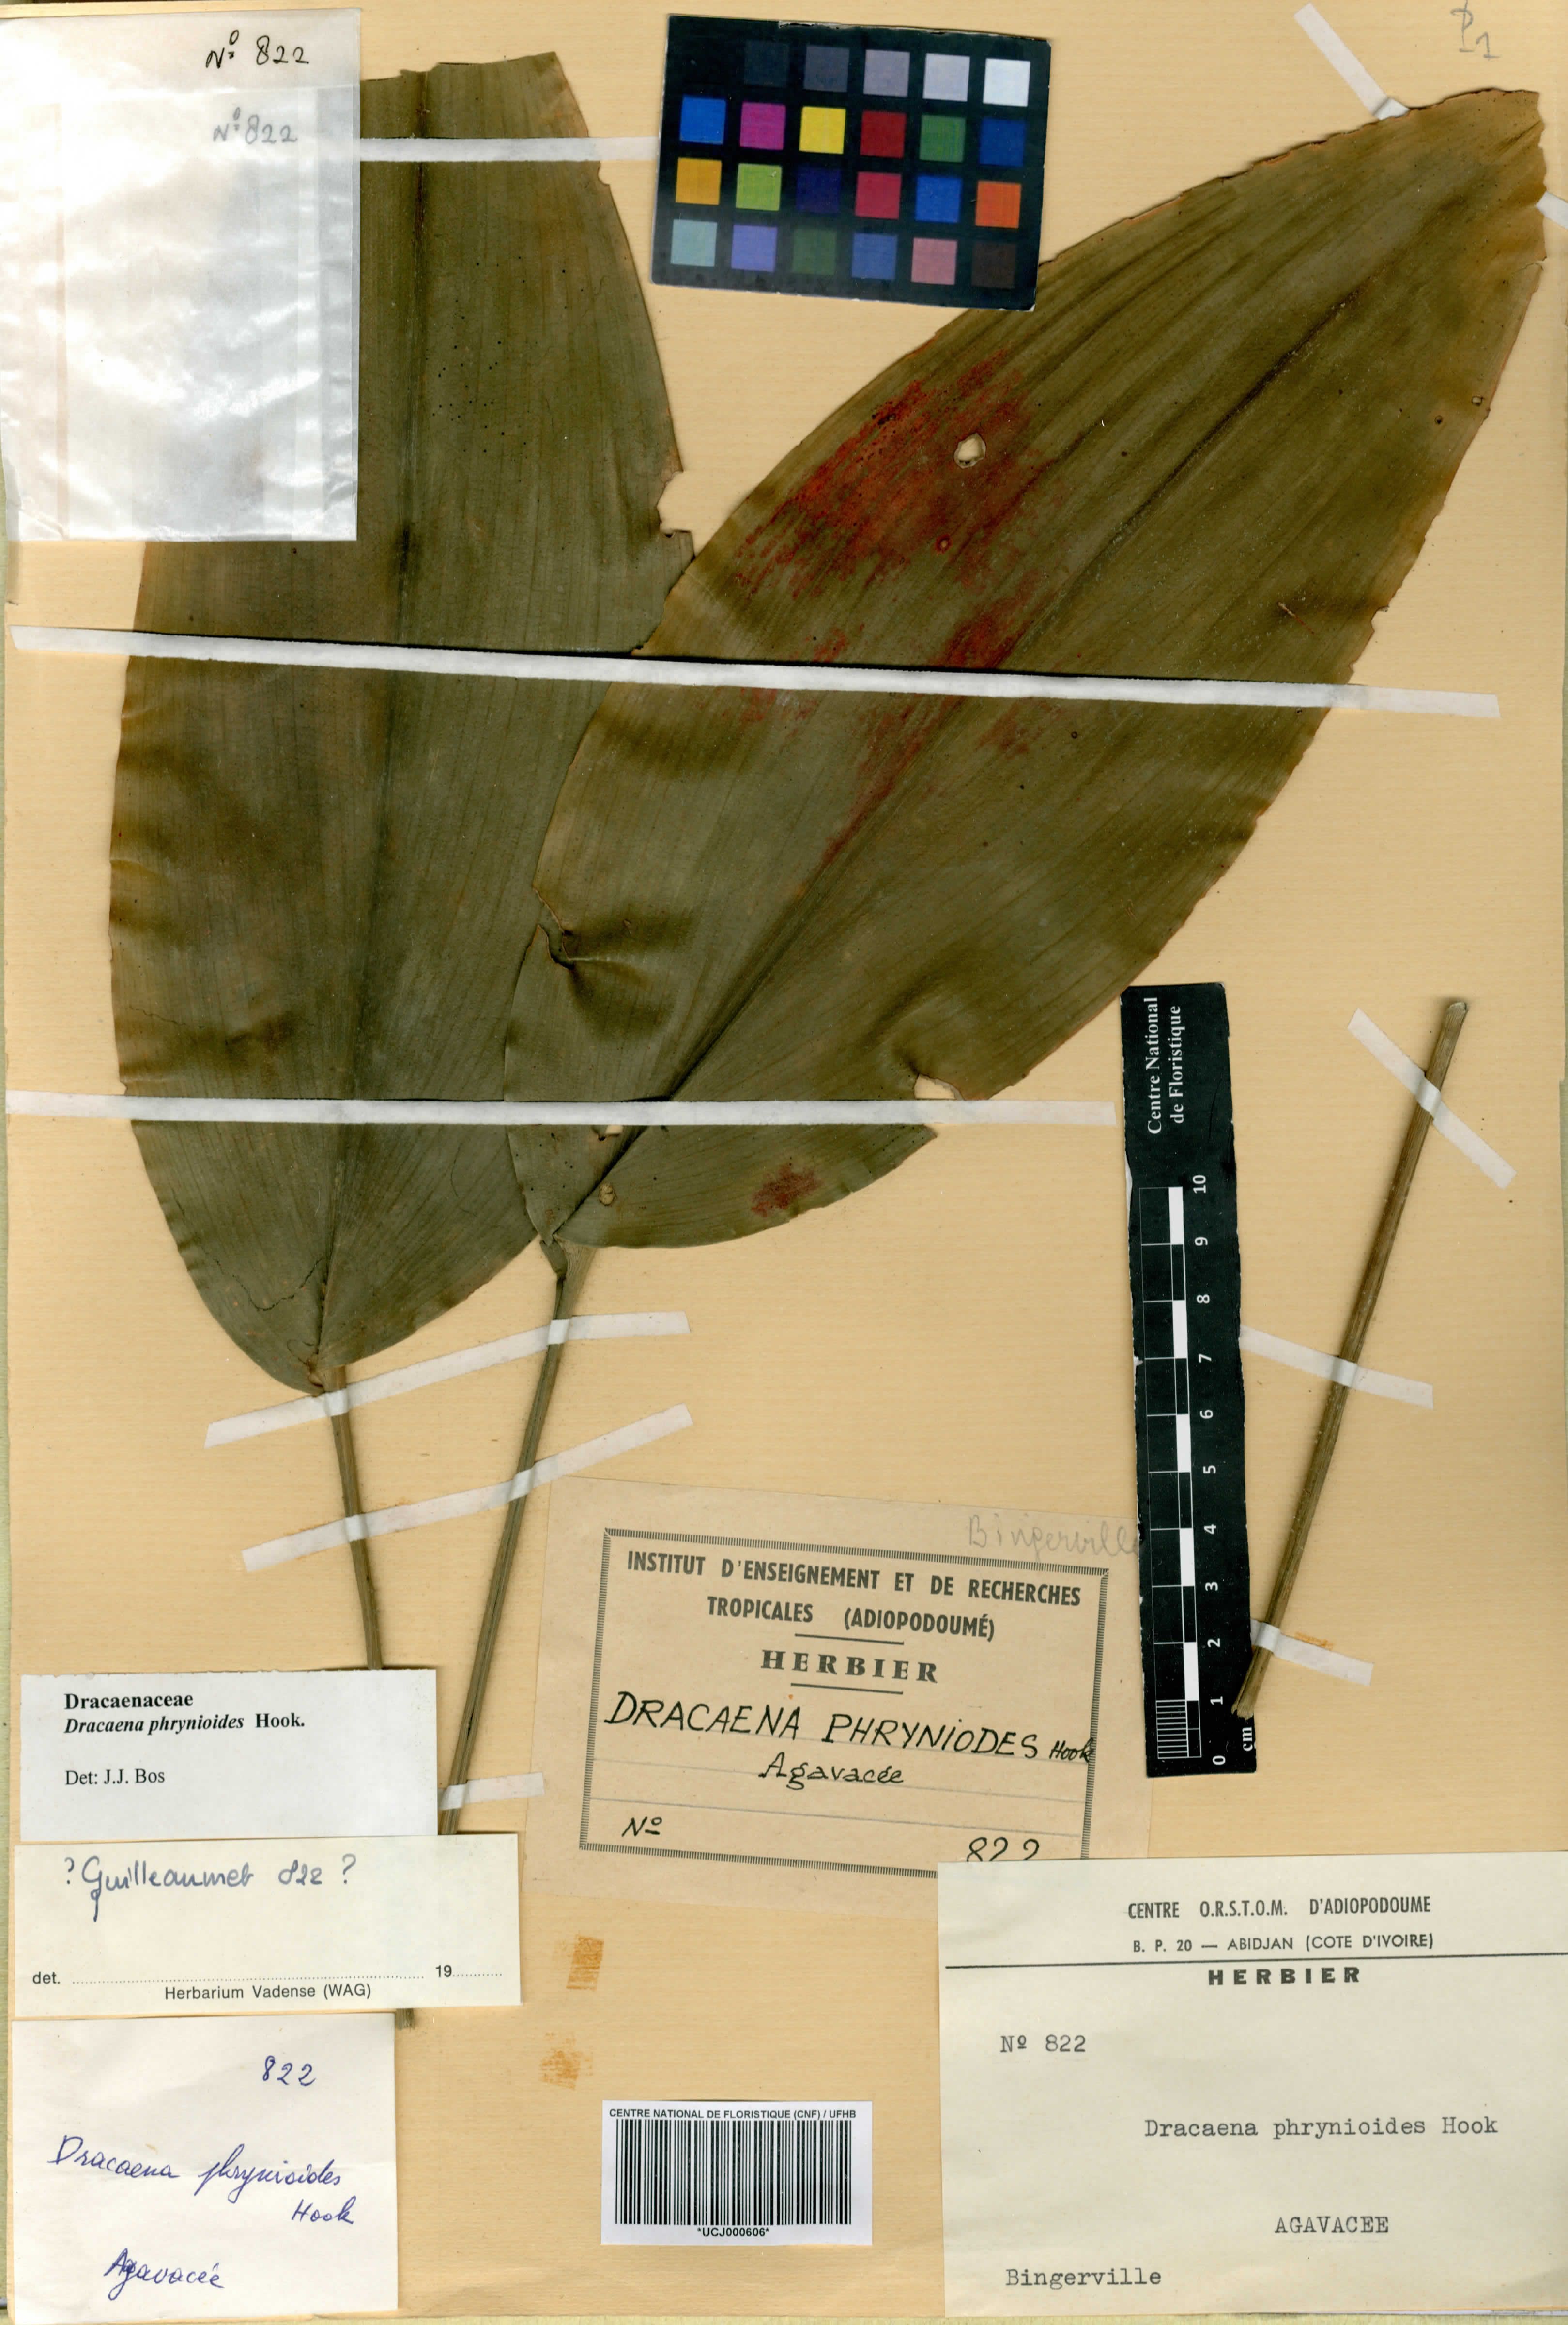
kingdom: Plantae
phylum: Tracheophyta
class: Liliopsida
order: Asparagales
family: Asparagaceae
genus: Dracaena
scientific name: Dracaena phrynioides
